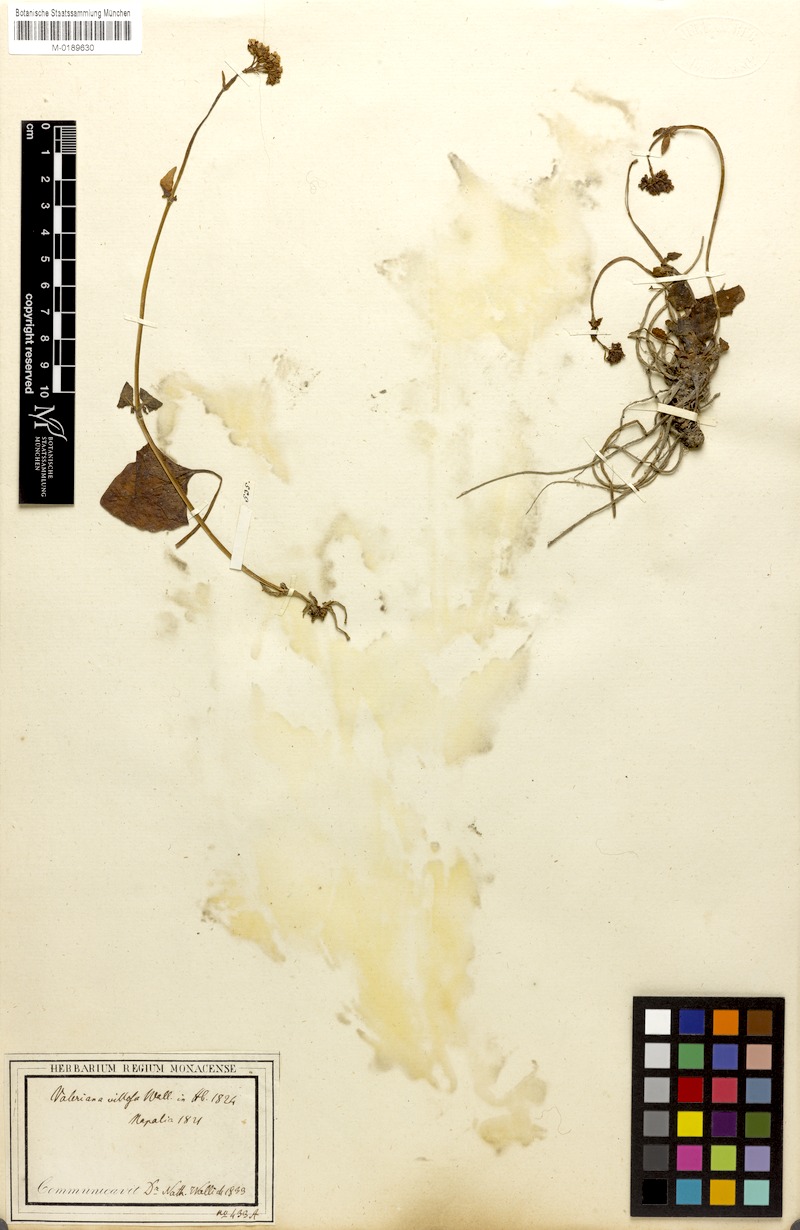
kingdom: Plantae
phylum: Tracheophyta
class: Magnoliopsida
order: Dipsacales
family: Caprifoliaceae
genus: Valeriana
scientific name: Valeriana jatamansi
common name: Indian valerian
